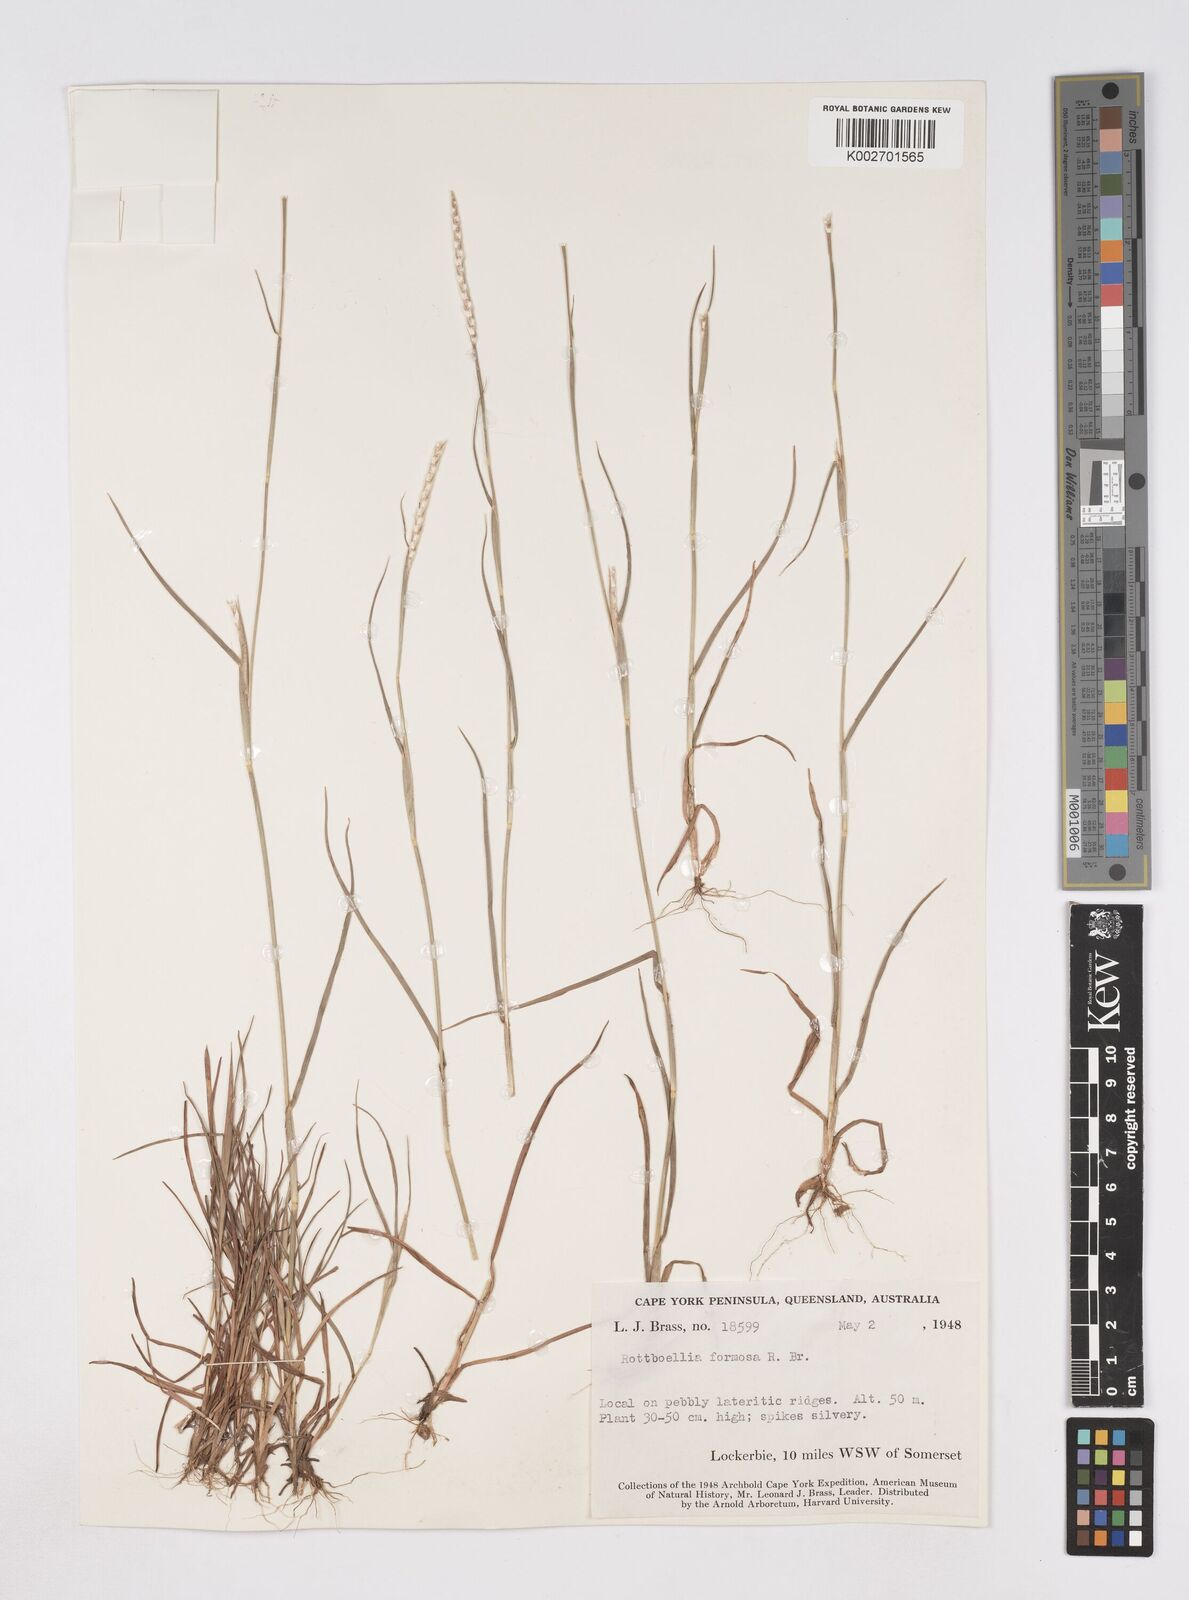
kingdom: Plantae
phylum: Tracheophyta
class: Liliopsida
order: Poales
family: Poaceae
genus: Heteropholis
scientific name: Heteropholis
